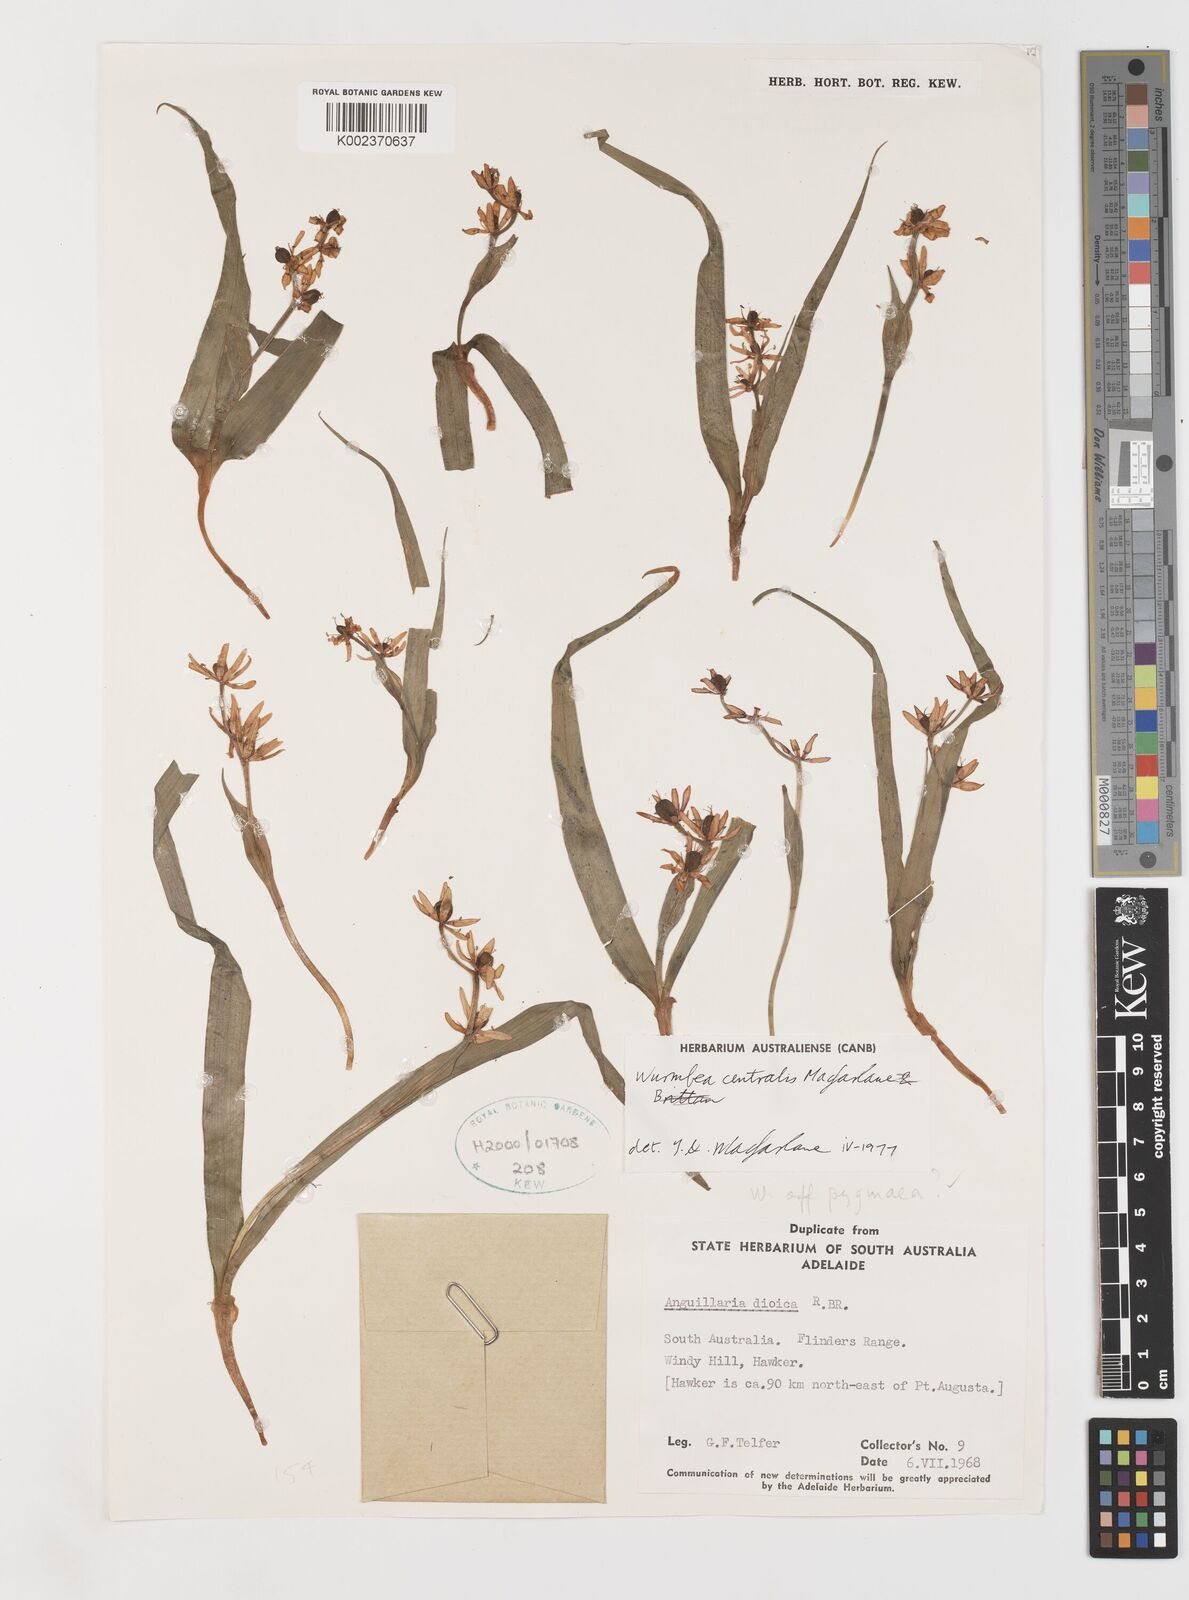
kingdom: Plantae
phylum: Tracheophyta
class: Liliopsida
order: Liliales
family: Colchicaceae
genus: Wurmbea
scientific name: Wurmbea centralis
